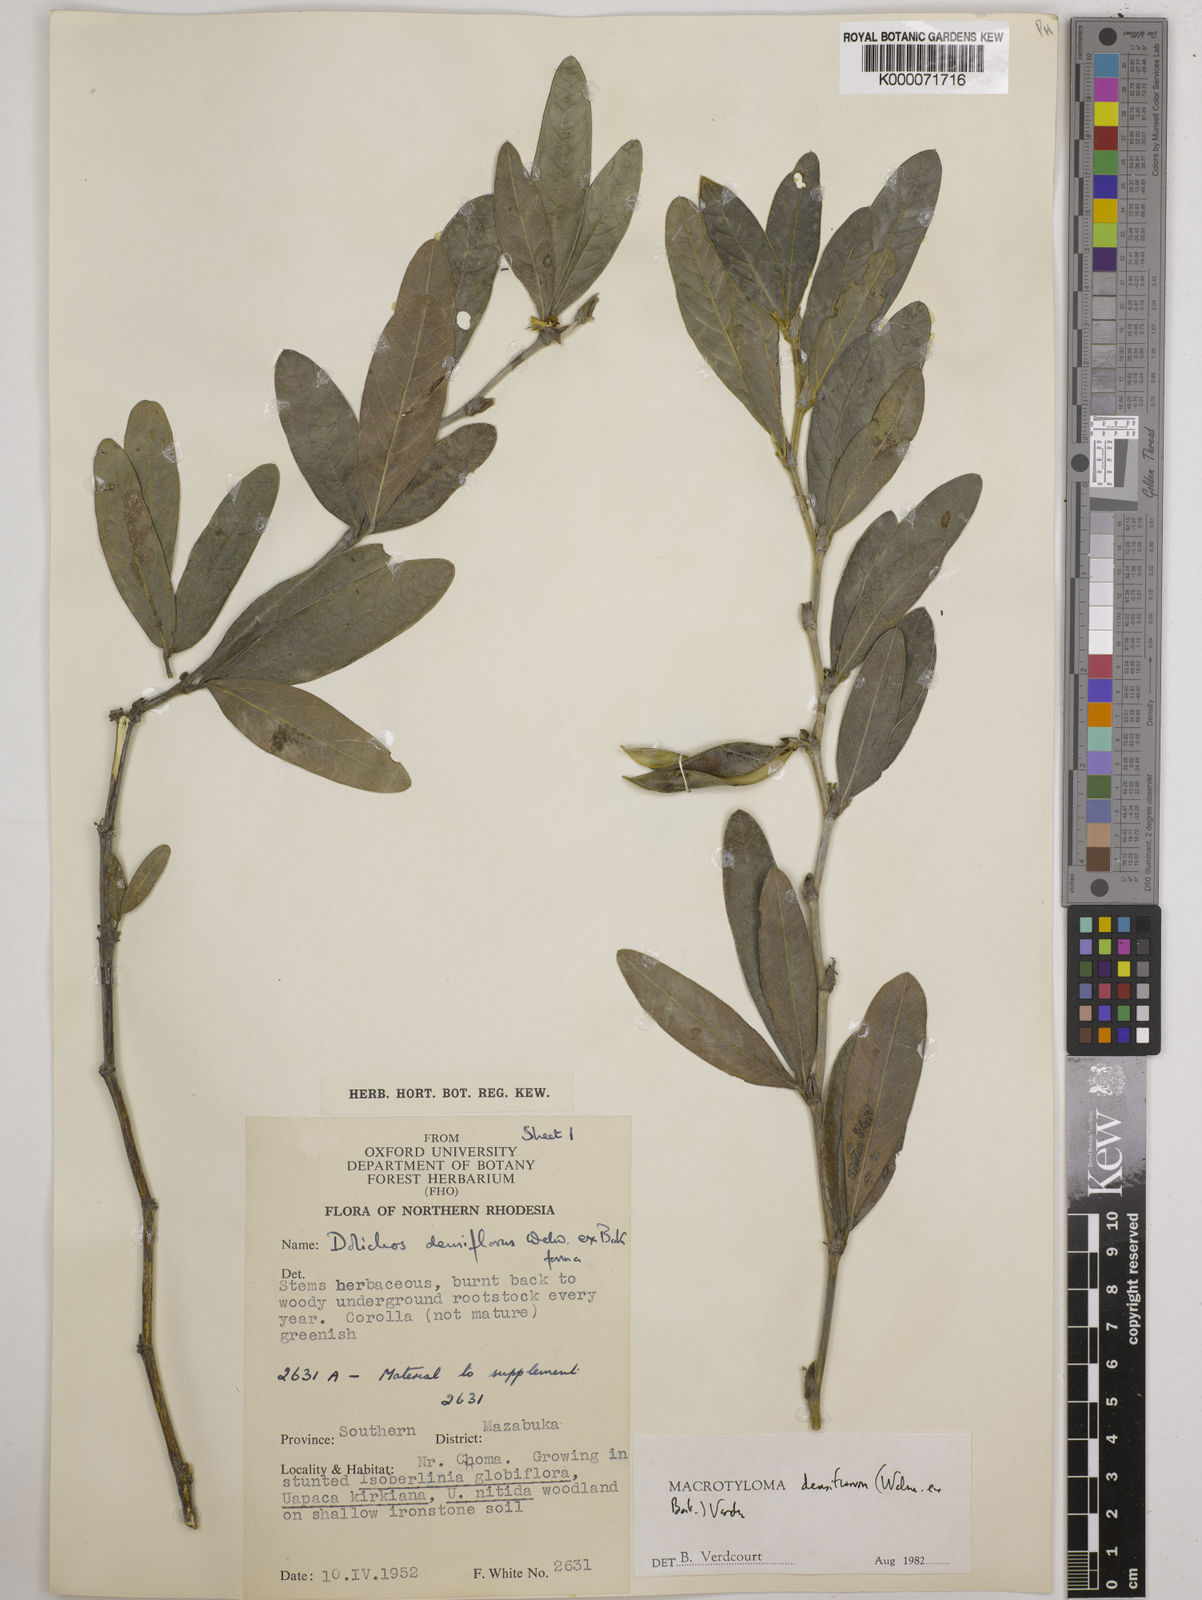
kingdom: Plantae
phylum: Tracheophyta
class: Magnoliopsida
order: Fabales
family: Fabaceae
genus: Macrotyloma
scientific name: Macrotyloma densiflorum
